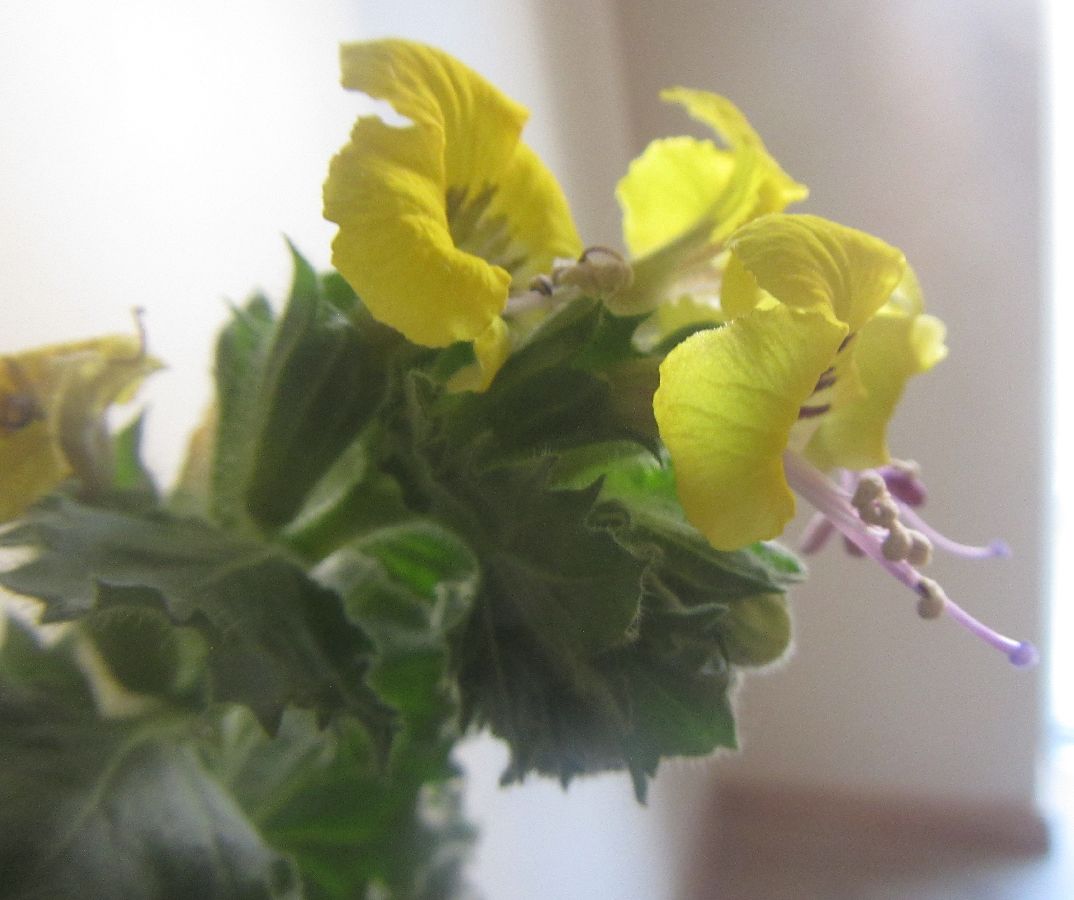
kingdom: Plantae
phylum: Tracheophyta
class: Magnoliopsida
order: Solanales
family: Solanaceae
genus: Hyoscyamus
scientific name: Hyoscyamus aureus
